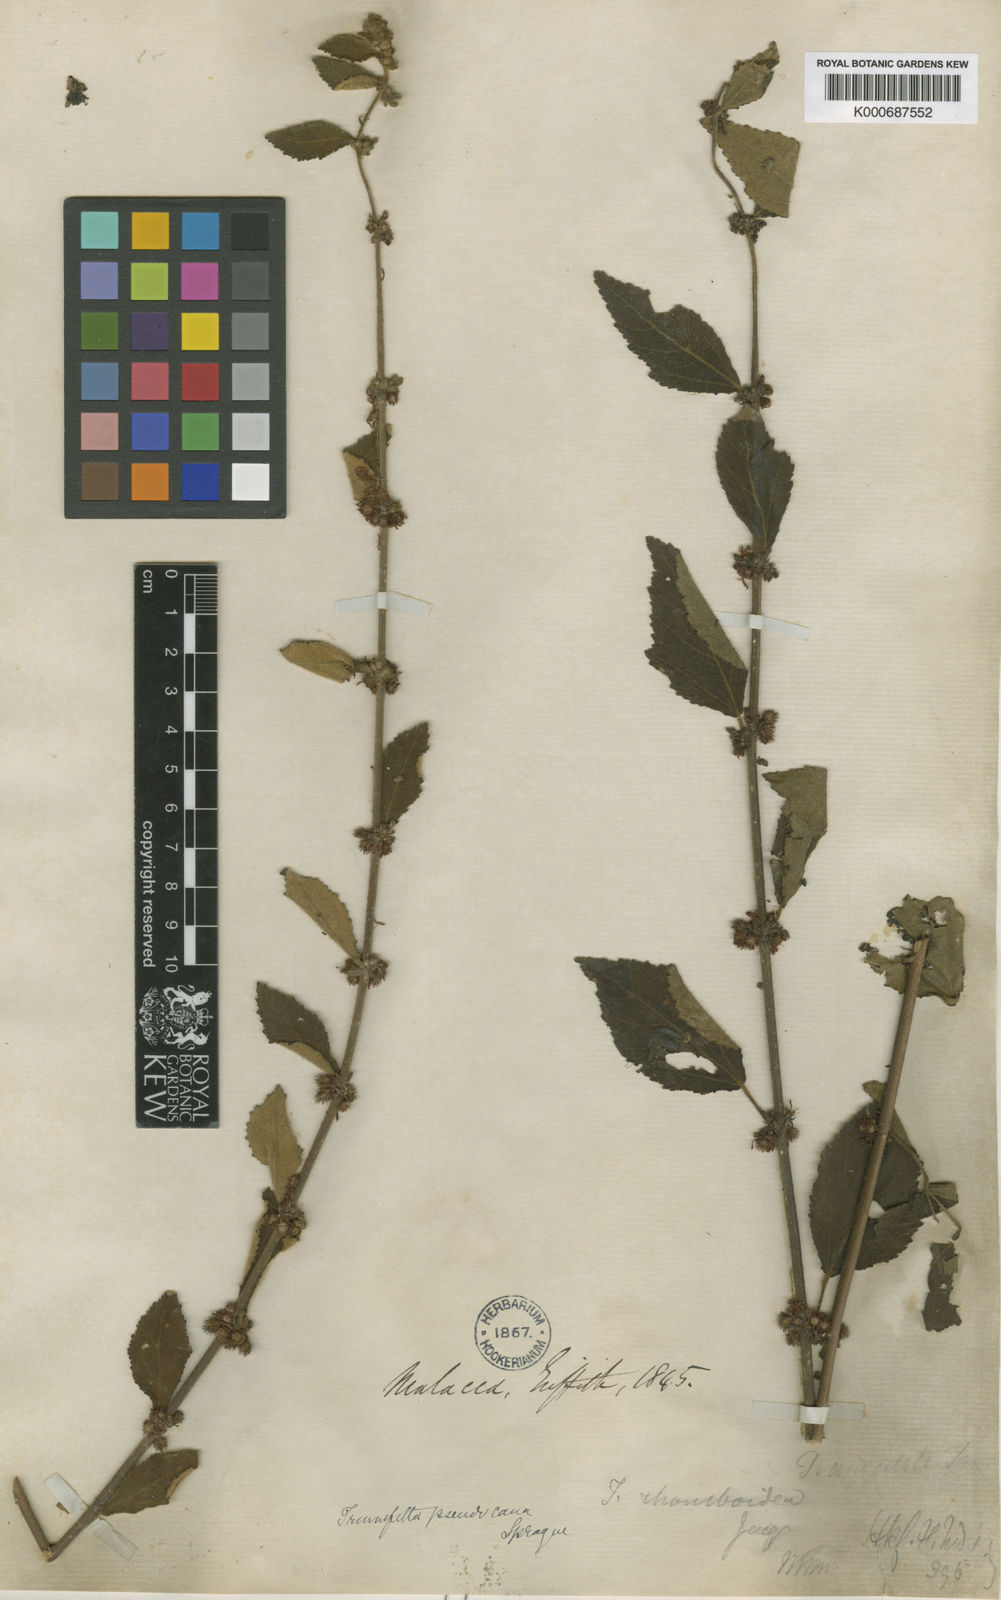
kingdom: Plantae
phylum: Tracheophyta
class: Magnoliopsida
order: Malvales
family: Malvaceae
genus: Triumfetta
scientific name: Triumfetta tomentosa
